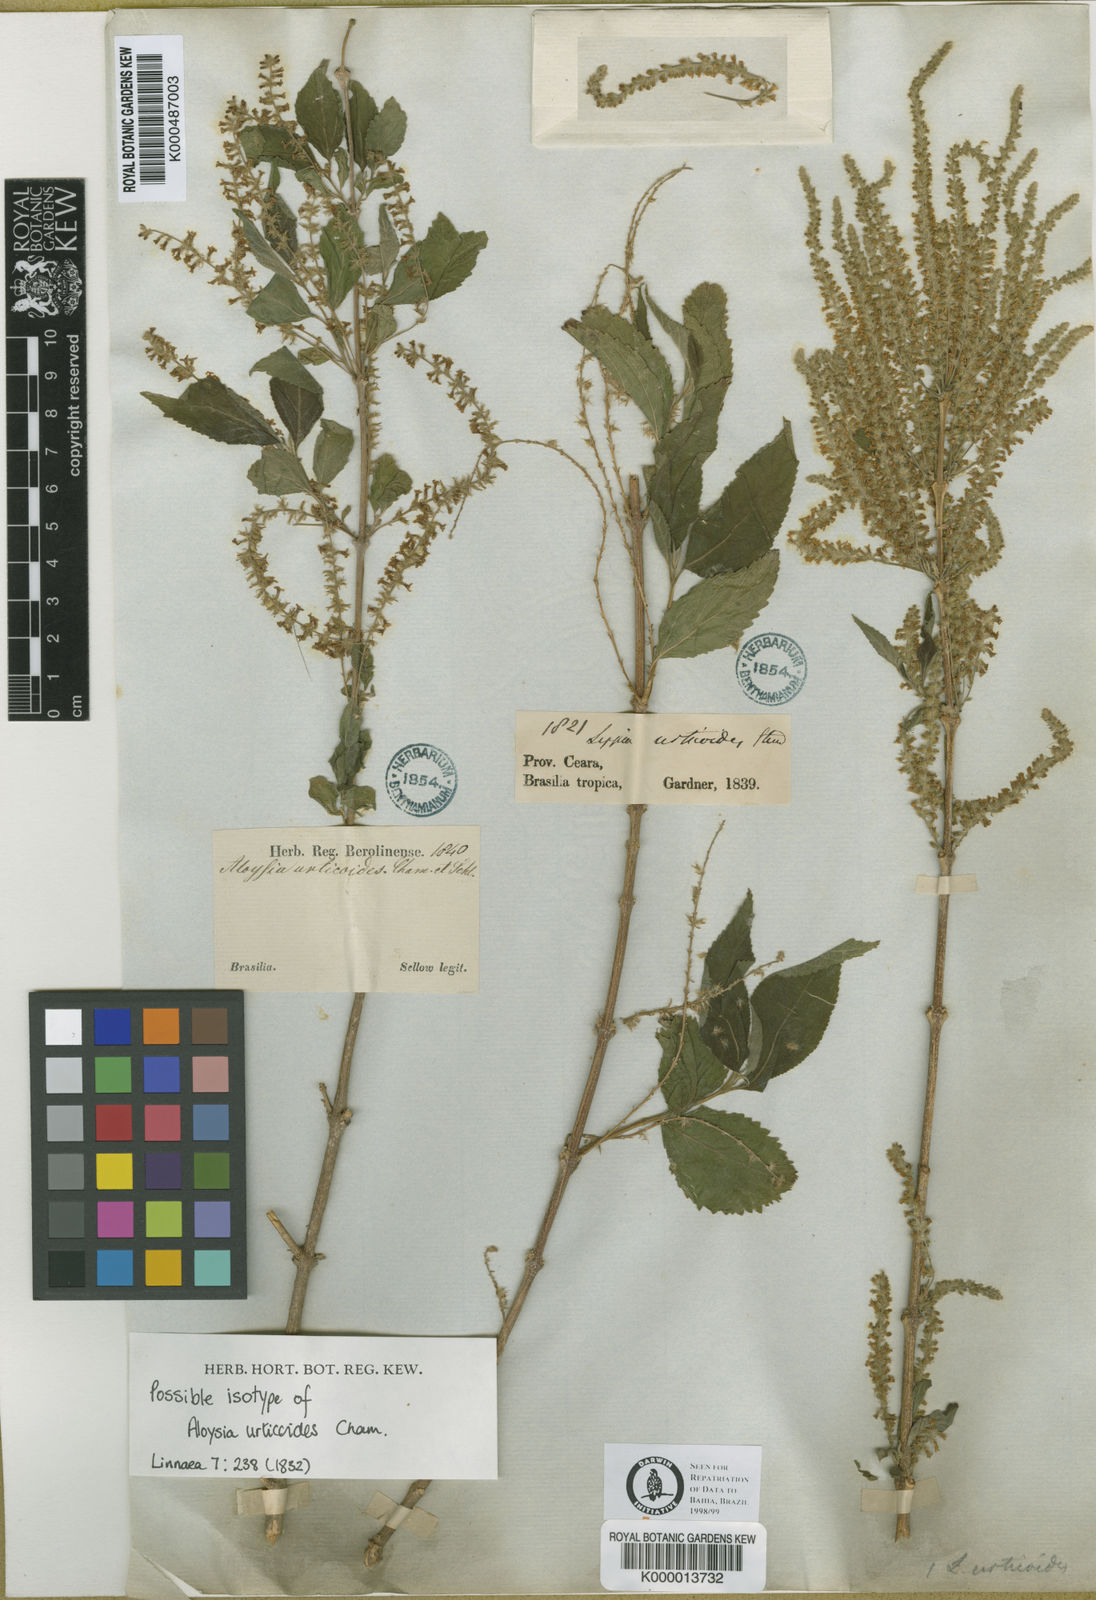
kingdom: Plantae
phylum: Tracheophyta
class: Magnoliopsida
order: Lamiales
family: Verbenaceae
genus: Aloysia
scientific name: Aloysia virgata
